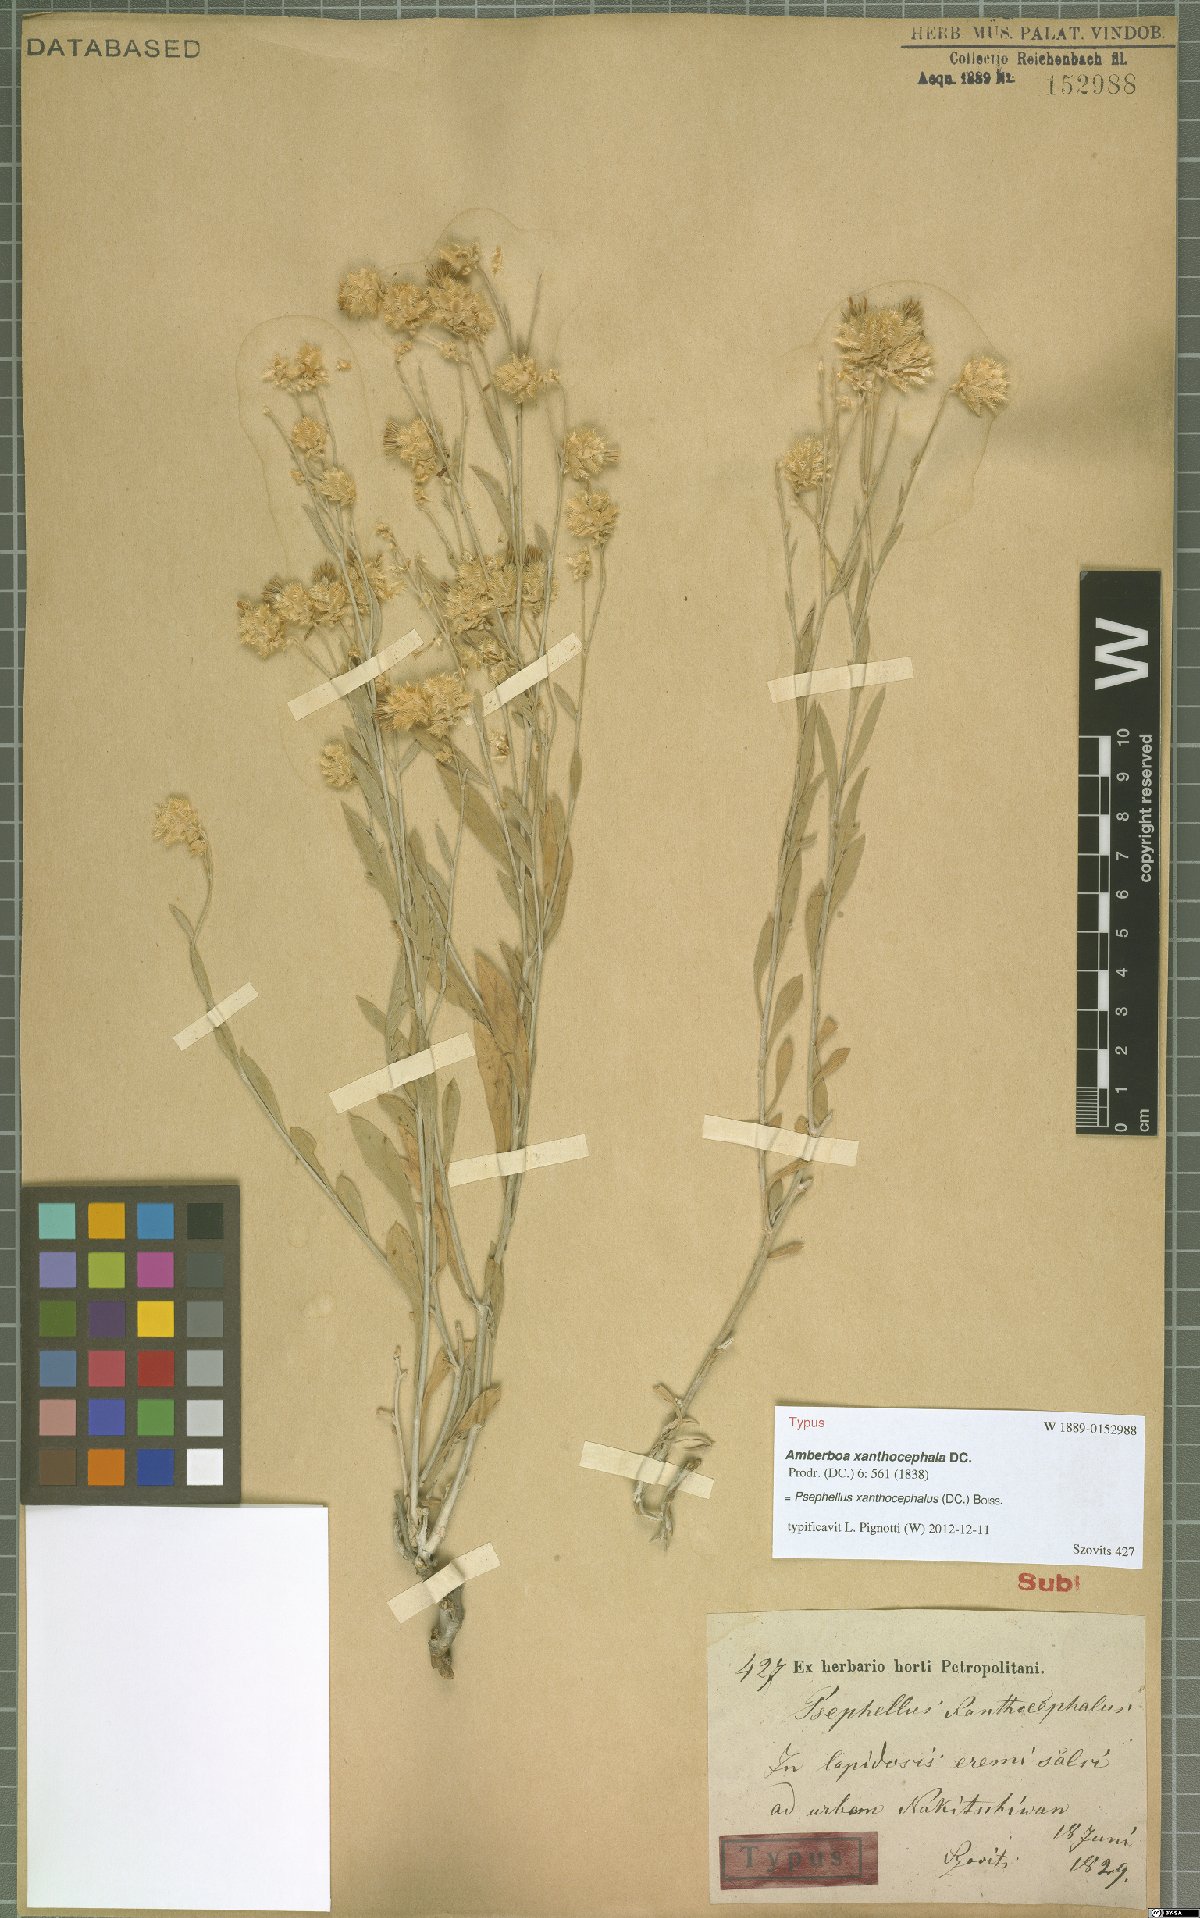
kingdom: Plantae
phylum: Tracheophyta
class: Magnoliopsida
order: Asterales
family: Asteraceae
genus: Psephellus
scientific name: Psephellus xanthocephalus
